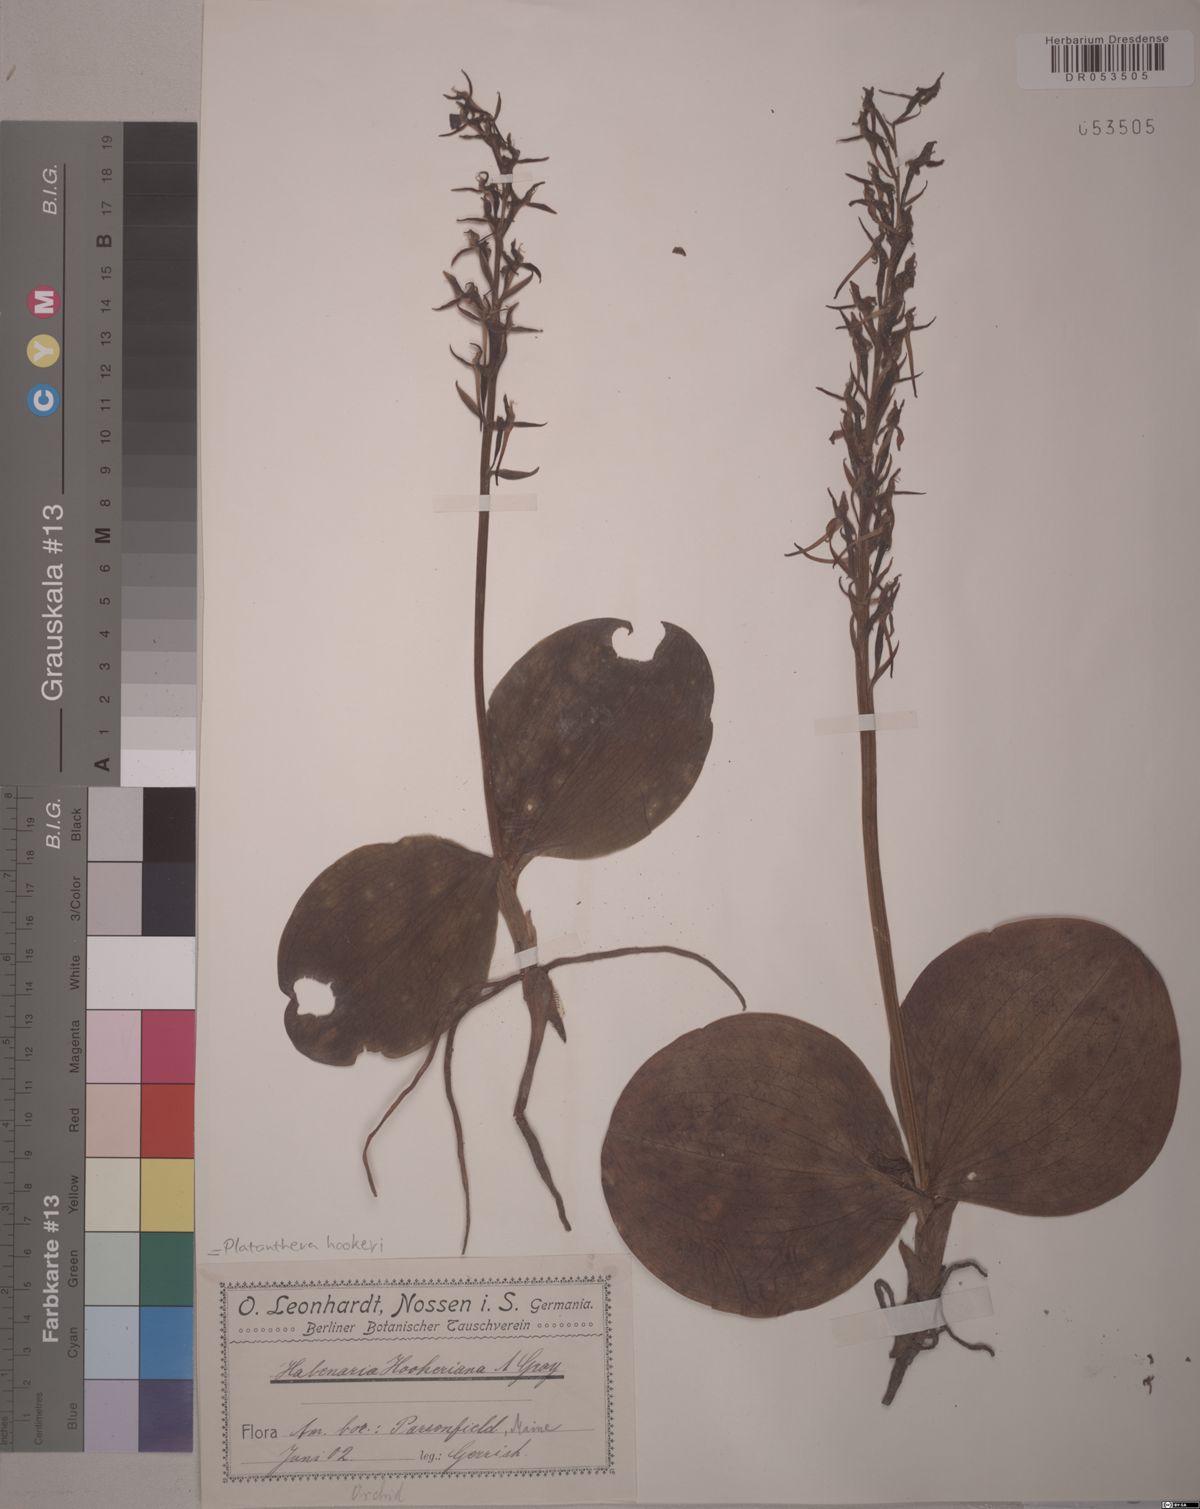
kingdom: Plantae
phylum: Tracheophyta
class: Liliopsida
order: Asparagales
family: Orchidaceae
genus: Platanthera
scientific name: Platanthera hookeri
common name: Hooker's orchid
